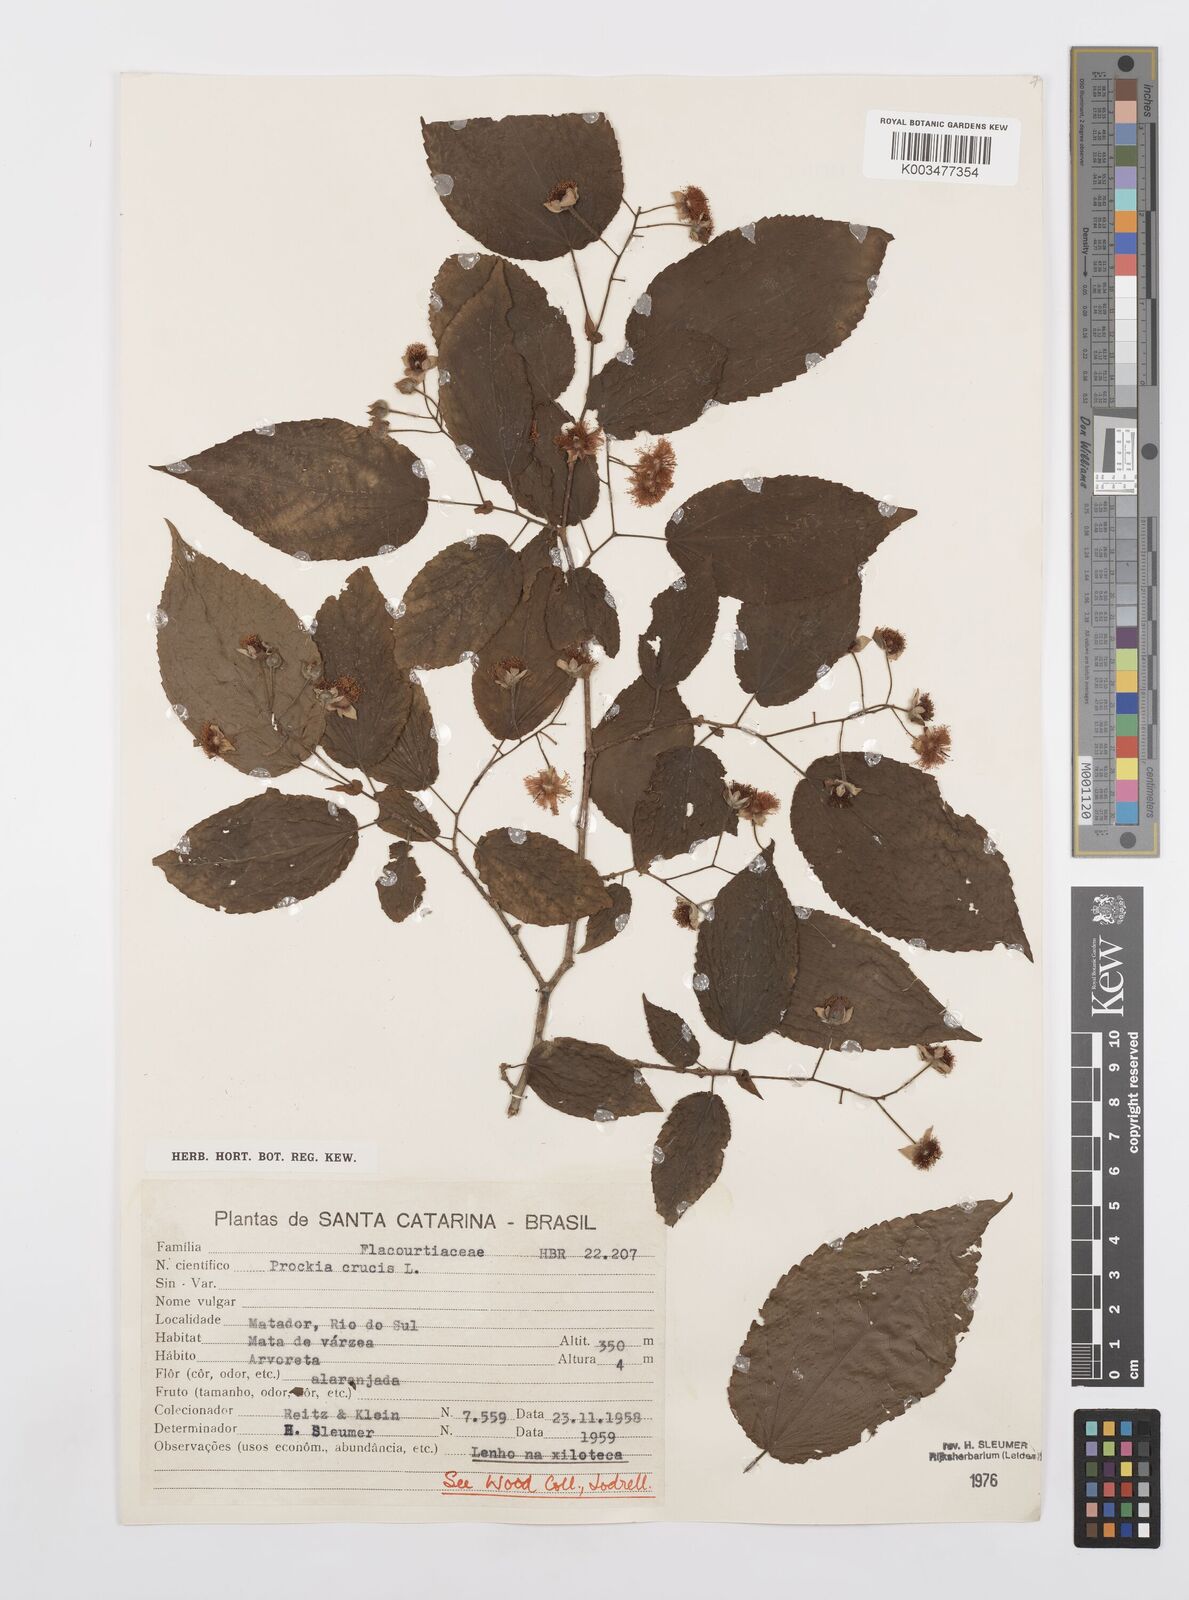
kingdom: Plantae
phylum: Tracheophyta
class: Magnoliopsida
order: Malpighiales
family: Salicaceae
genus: Prockia
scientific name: Prockia crucis
